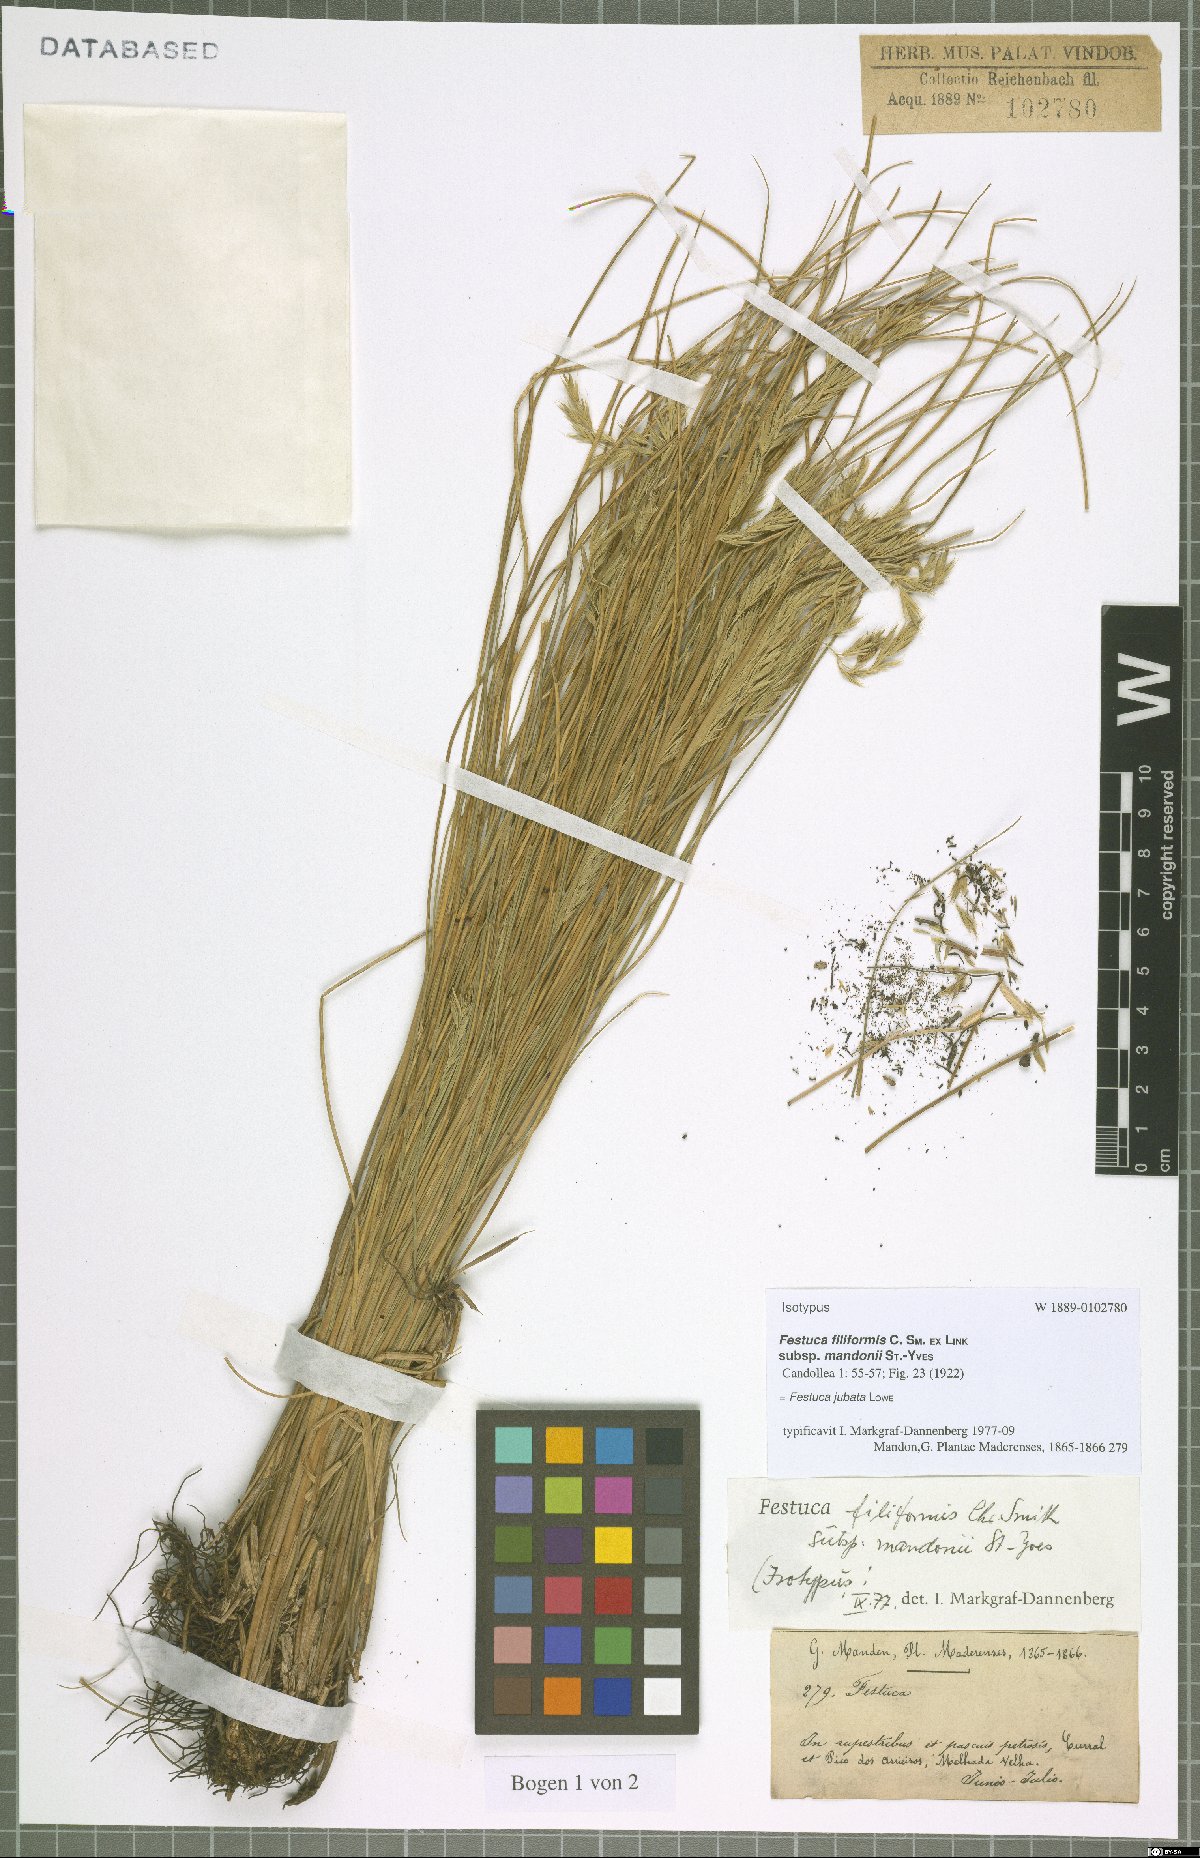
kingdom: Plantae
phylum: Tracheophyta
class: Liliopsida
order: Poales
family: Poaceae
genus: Festuca
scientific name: Festuca jubata
